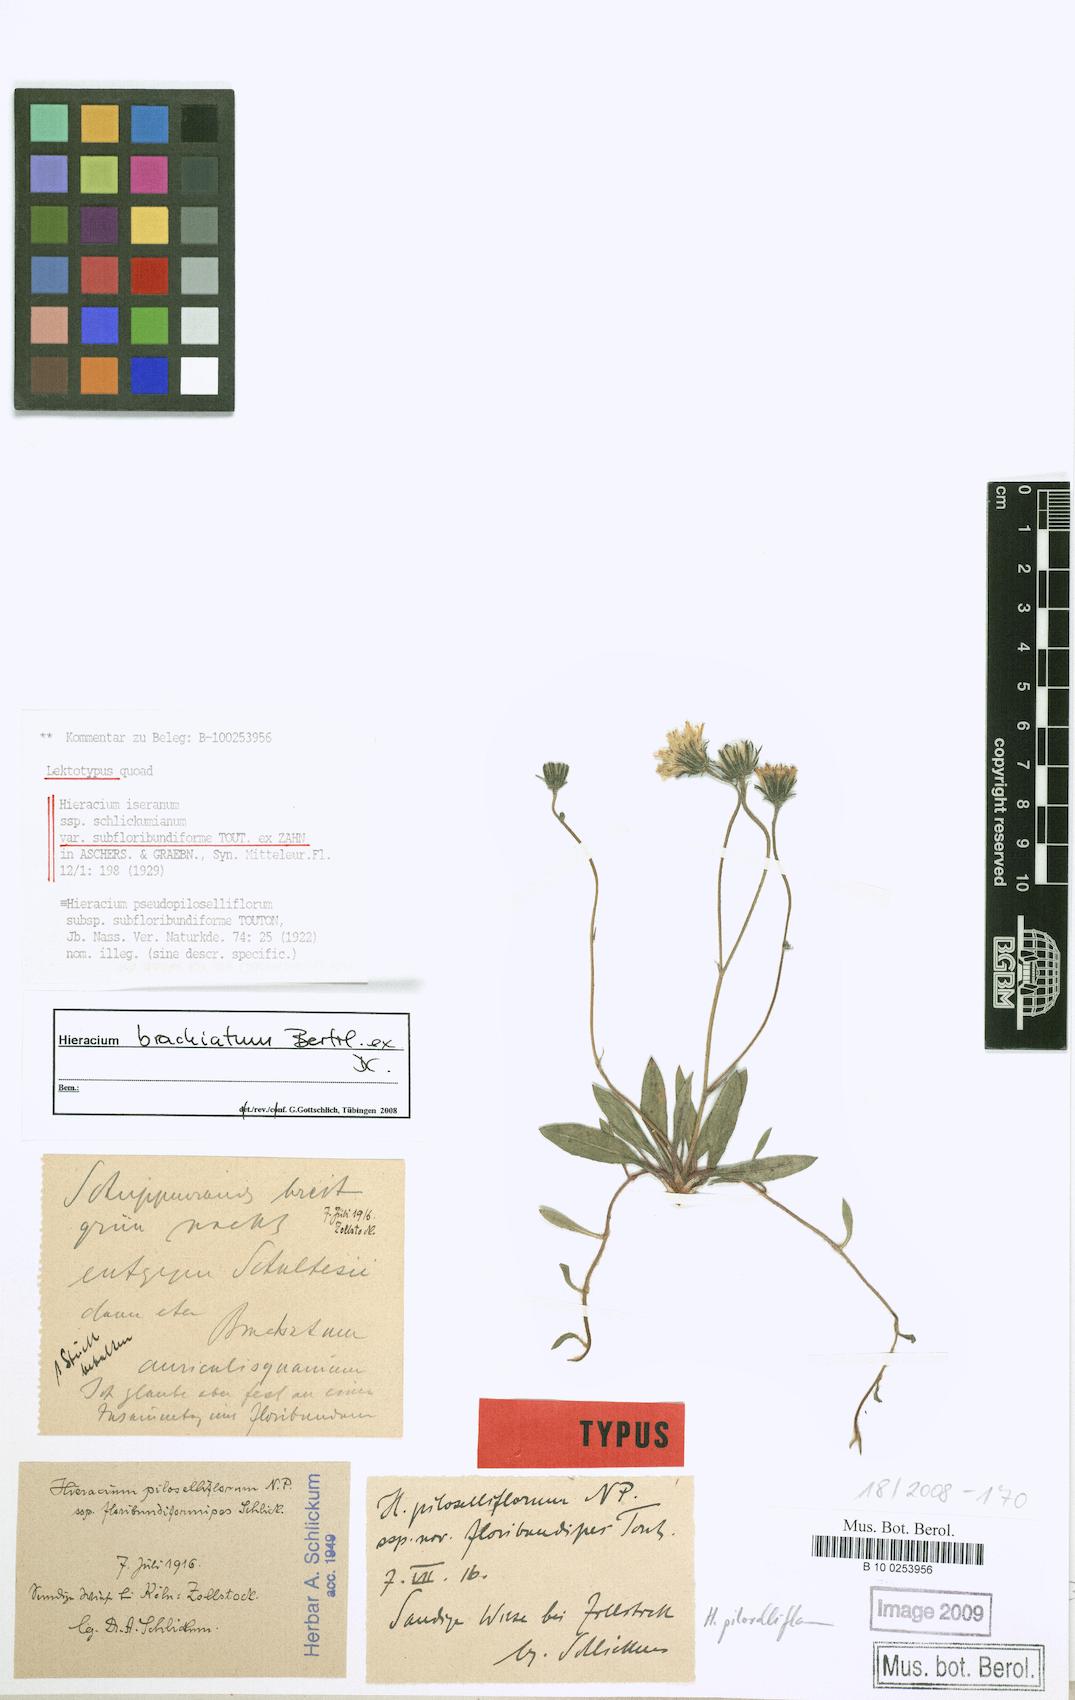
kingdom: Plantae
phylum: Tracheophyta
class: Magnoliopsida
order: Asterales
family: Asteraceae
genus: Pilosella
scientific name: Pilosella acutifolia
